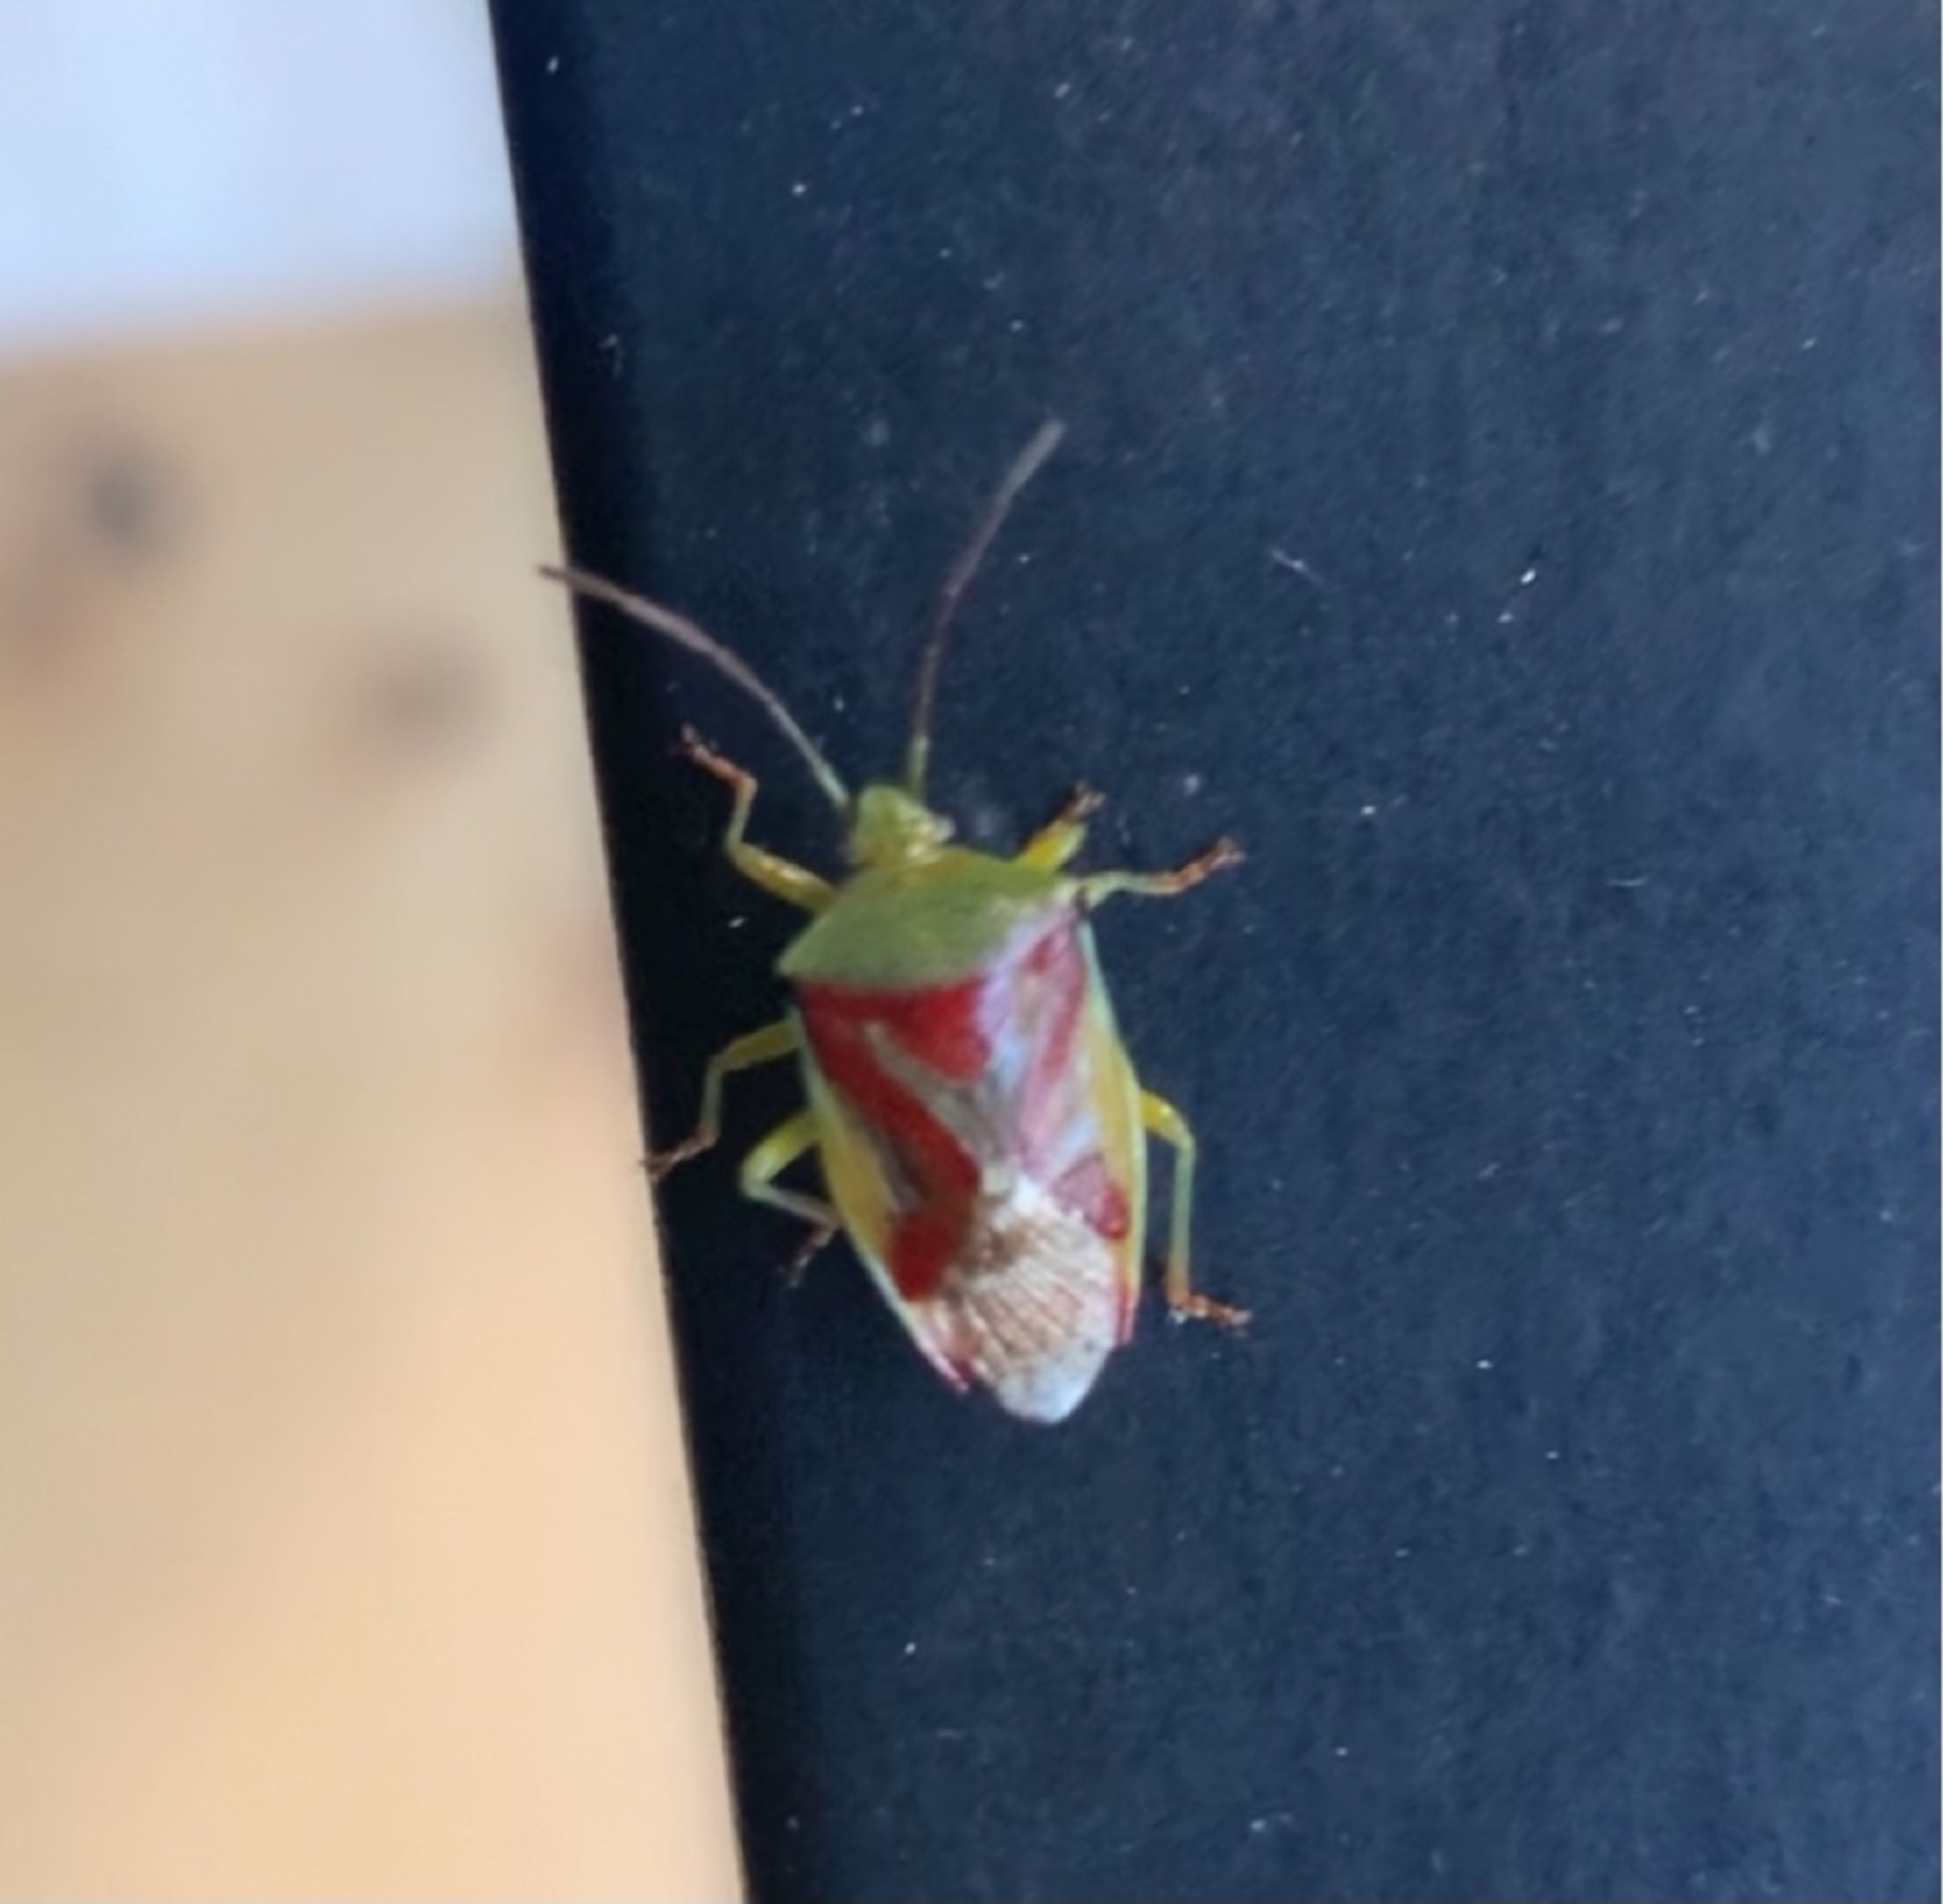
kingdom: Animalia
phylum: Arthropoda
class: Insecta
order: Hemiptera
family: Acanthosomatidae
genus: Elasmostethus
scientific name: Elasmostethus interstinctus
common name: Almindelig løvtæge
